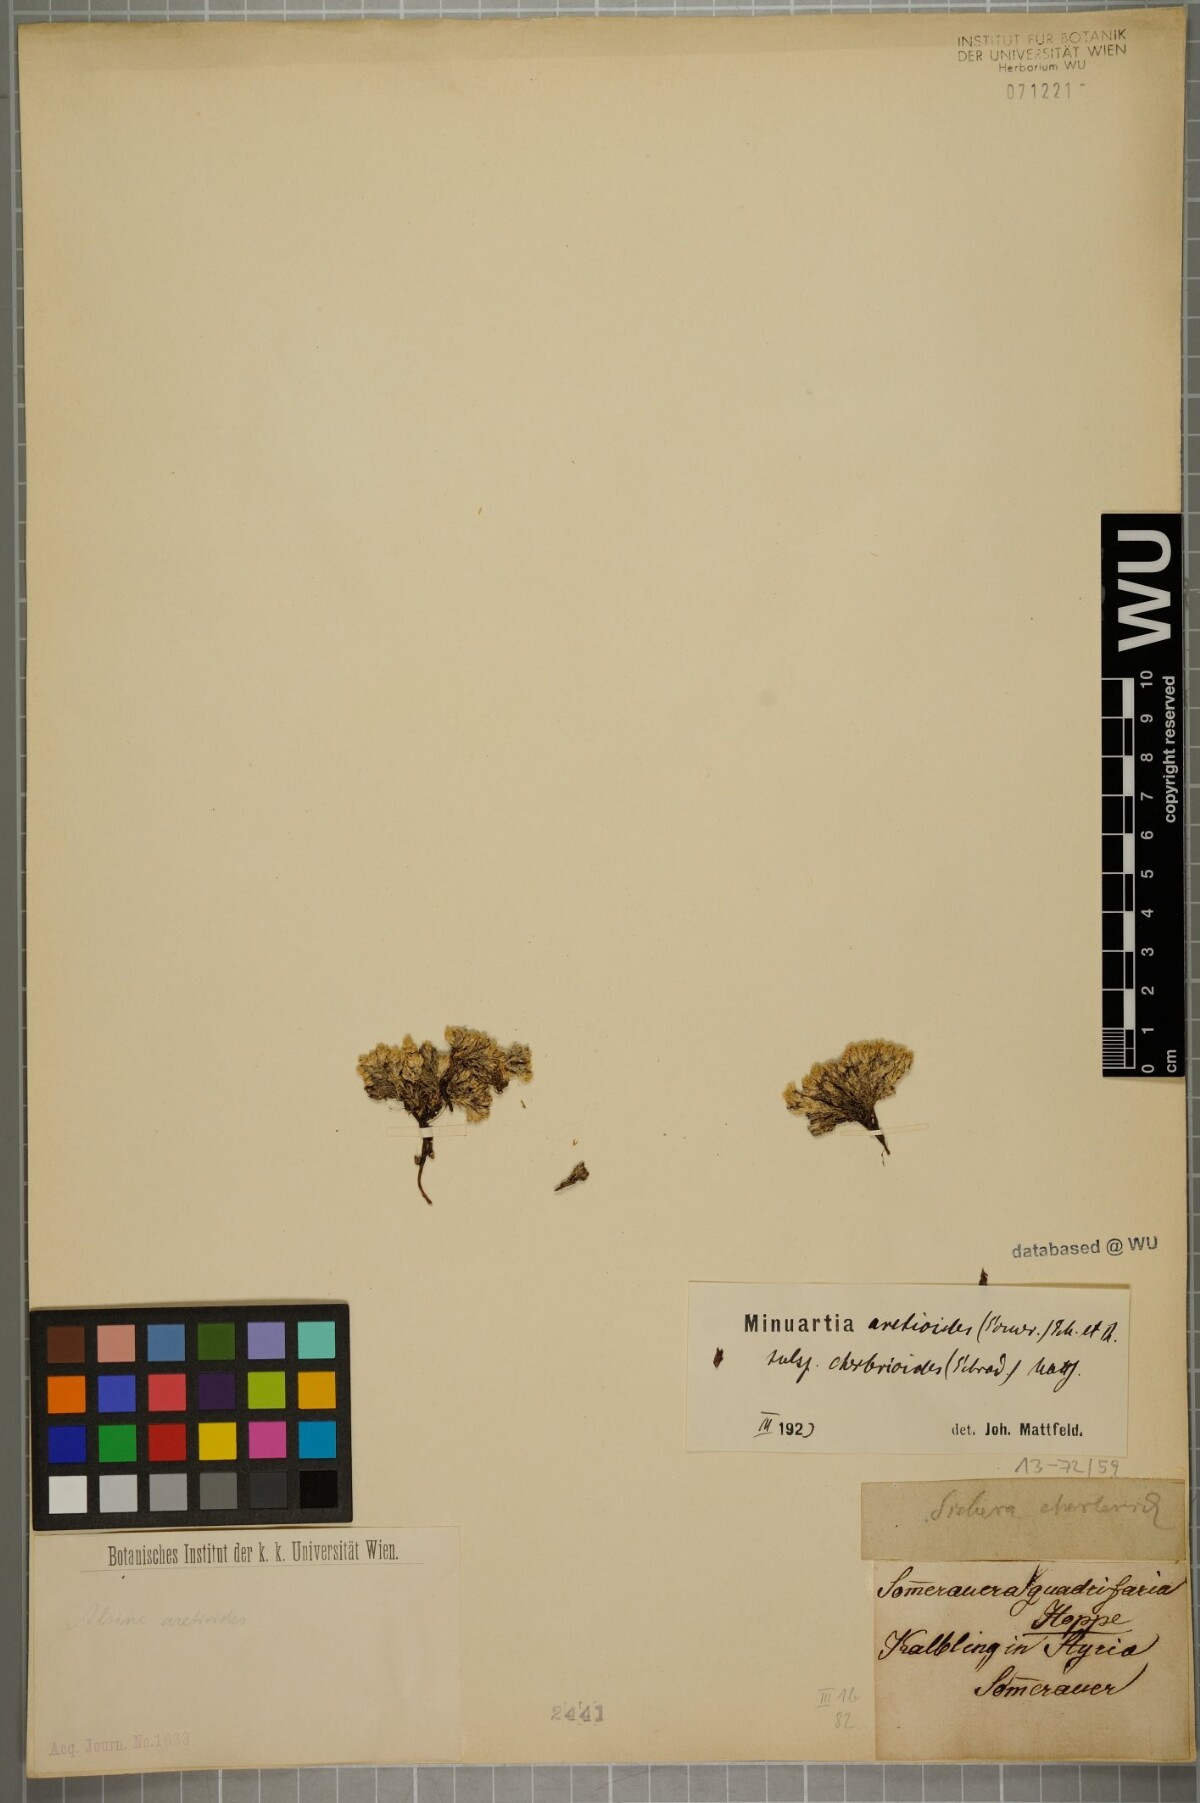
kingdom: Plantae
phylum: Tracheophyta
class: Magnoliopsida
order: Caryophyllales
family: Caryophyllaceae
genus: Facchinia
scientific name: Facchinia cherlerioides
